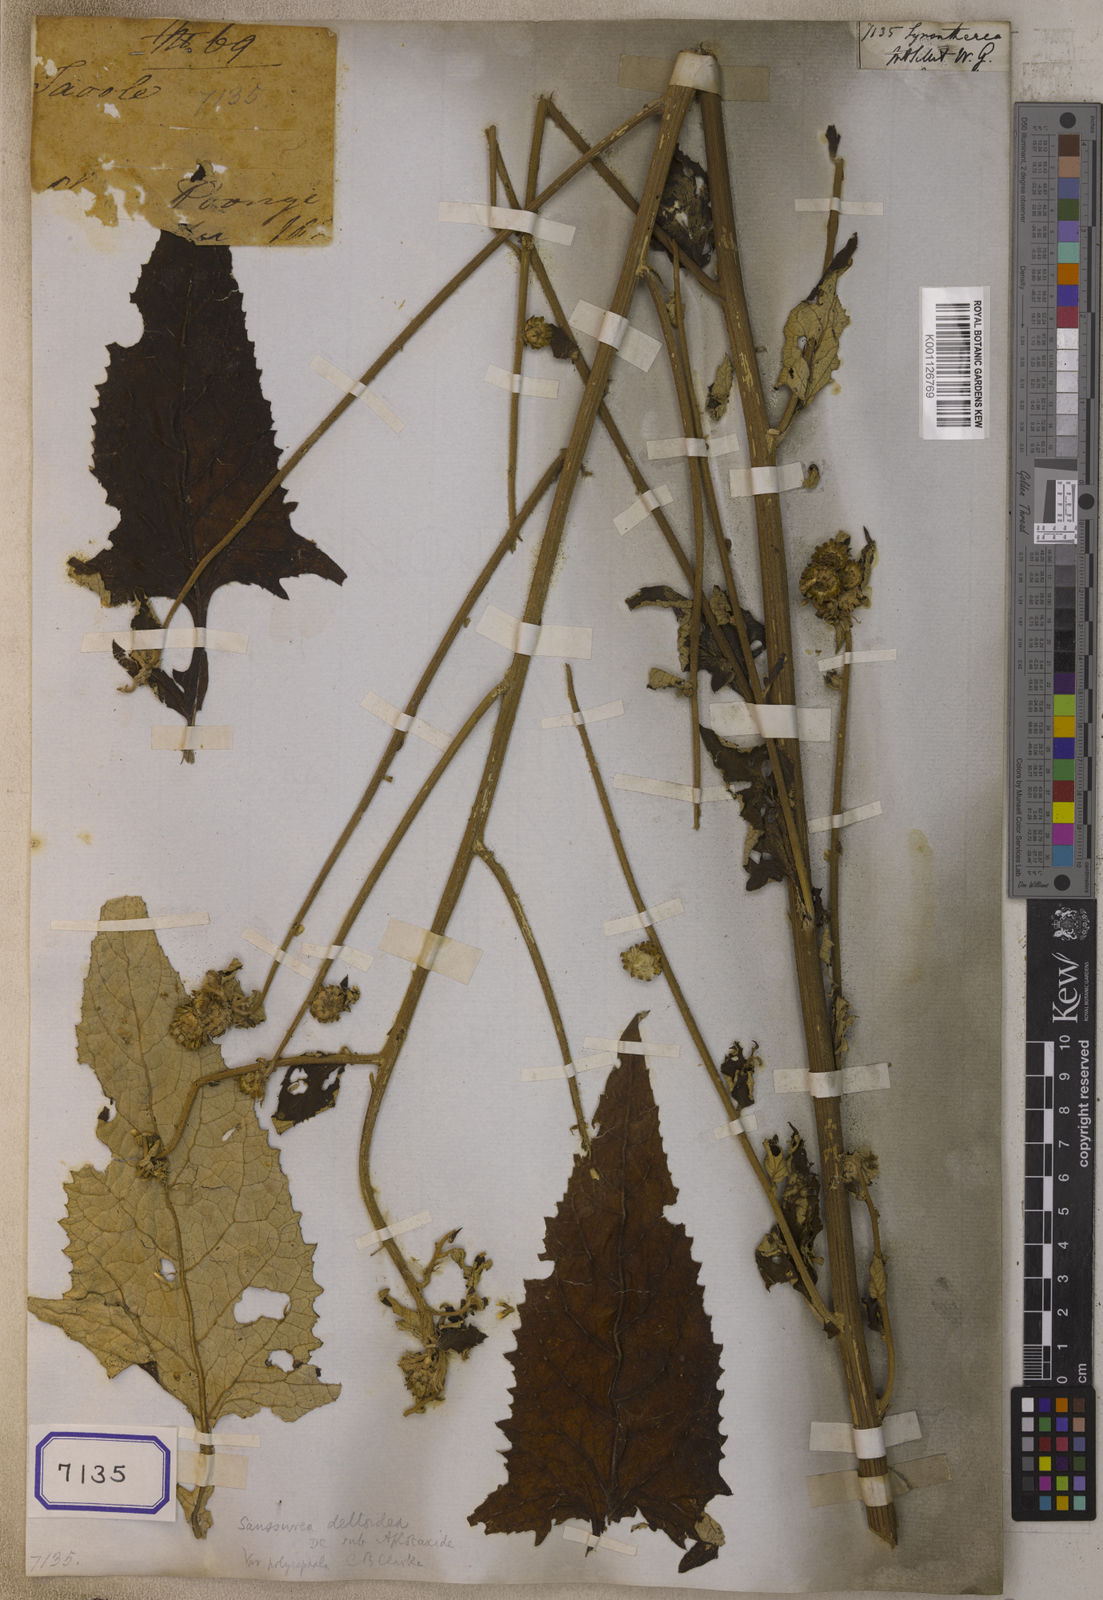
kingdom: Plantae
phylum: Tracheophyta
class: Magnoliopsida
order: Asterales
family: Asteraceae
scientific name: Asteraceae
